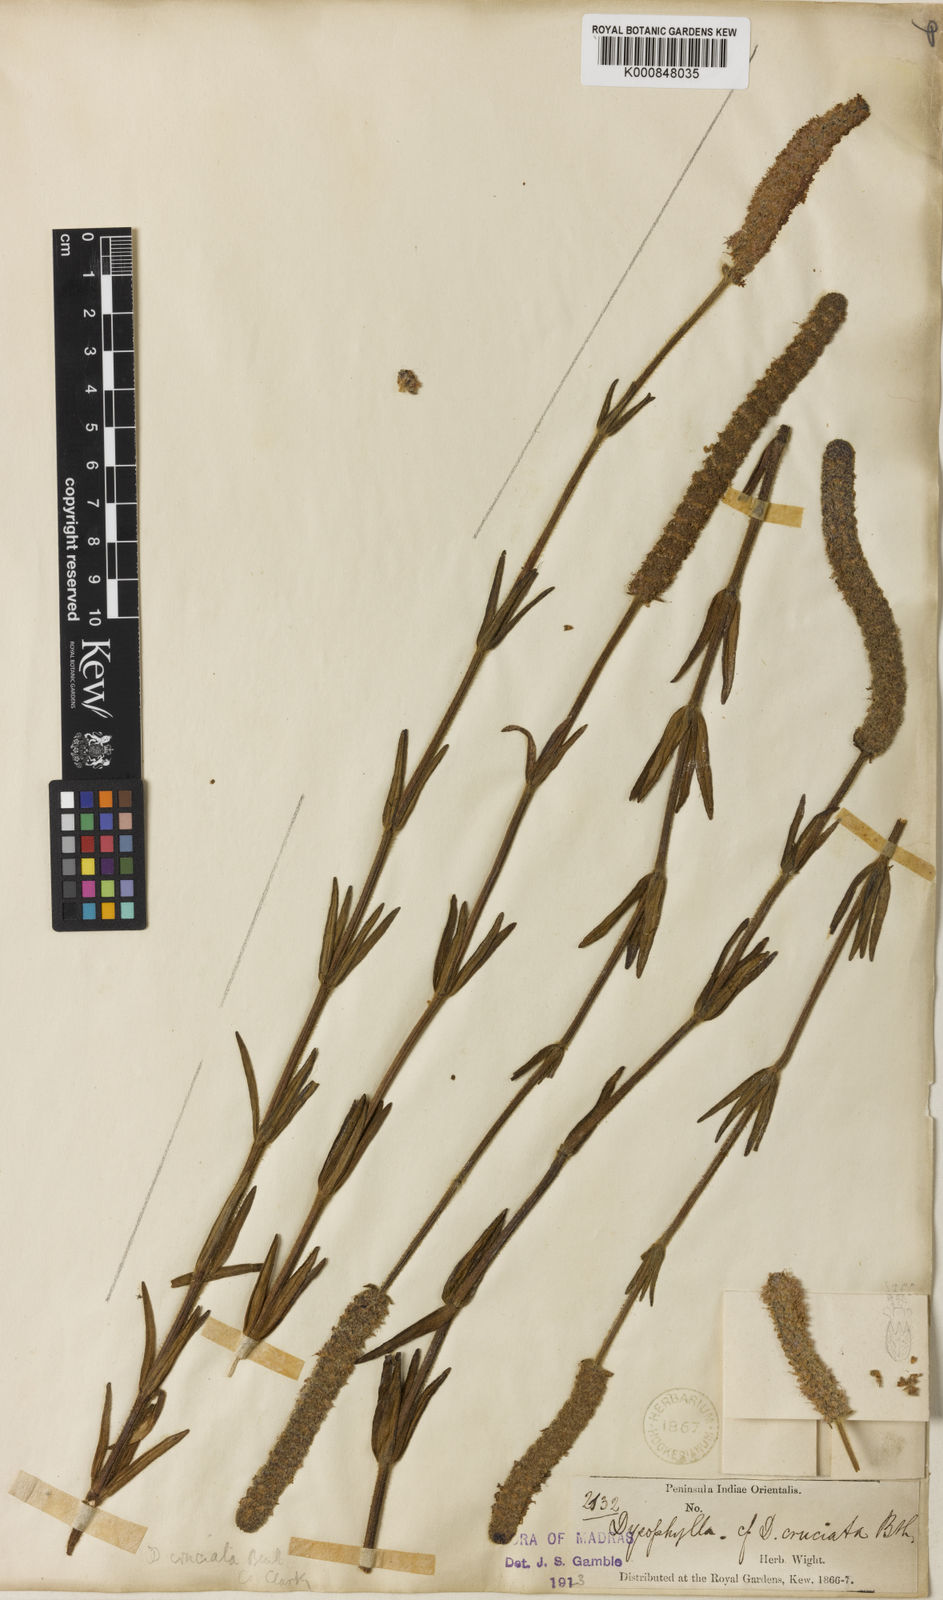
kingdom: Plantae
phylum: Tracheophyta
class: Magnoliopsida
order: Lamiales
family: Lamiaceae
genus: Pogostemon
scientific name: Pogostemon cruciatus
